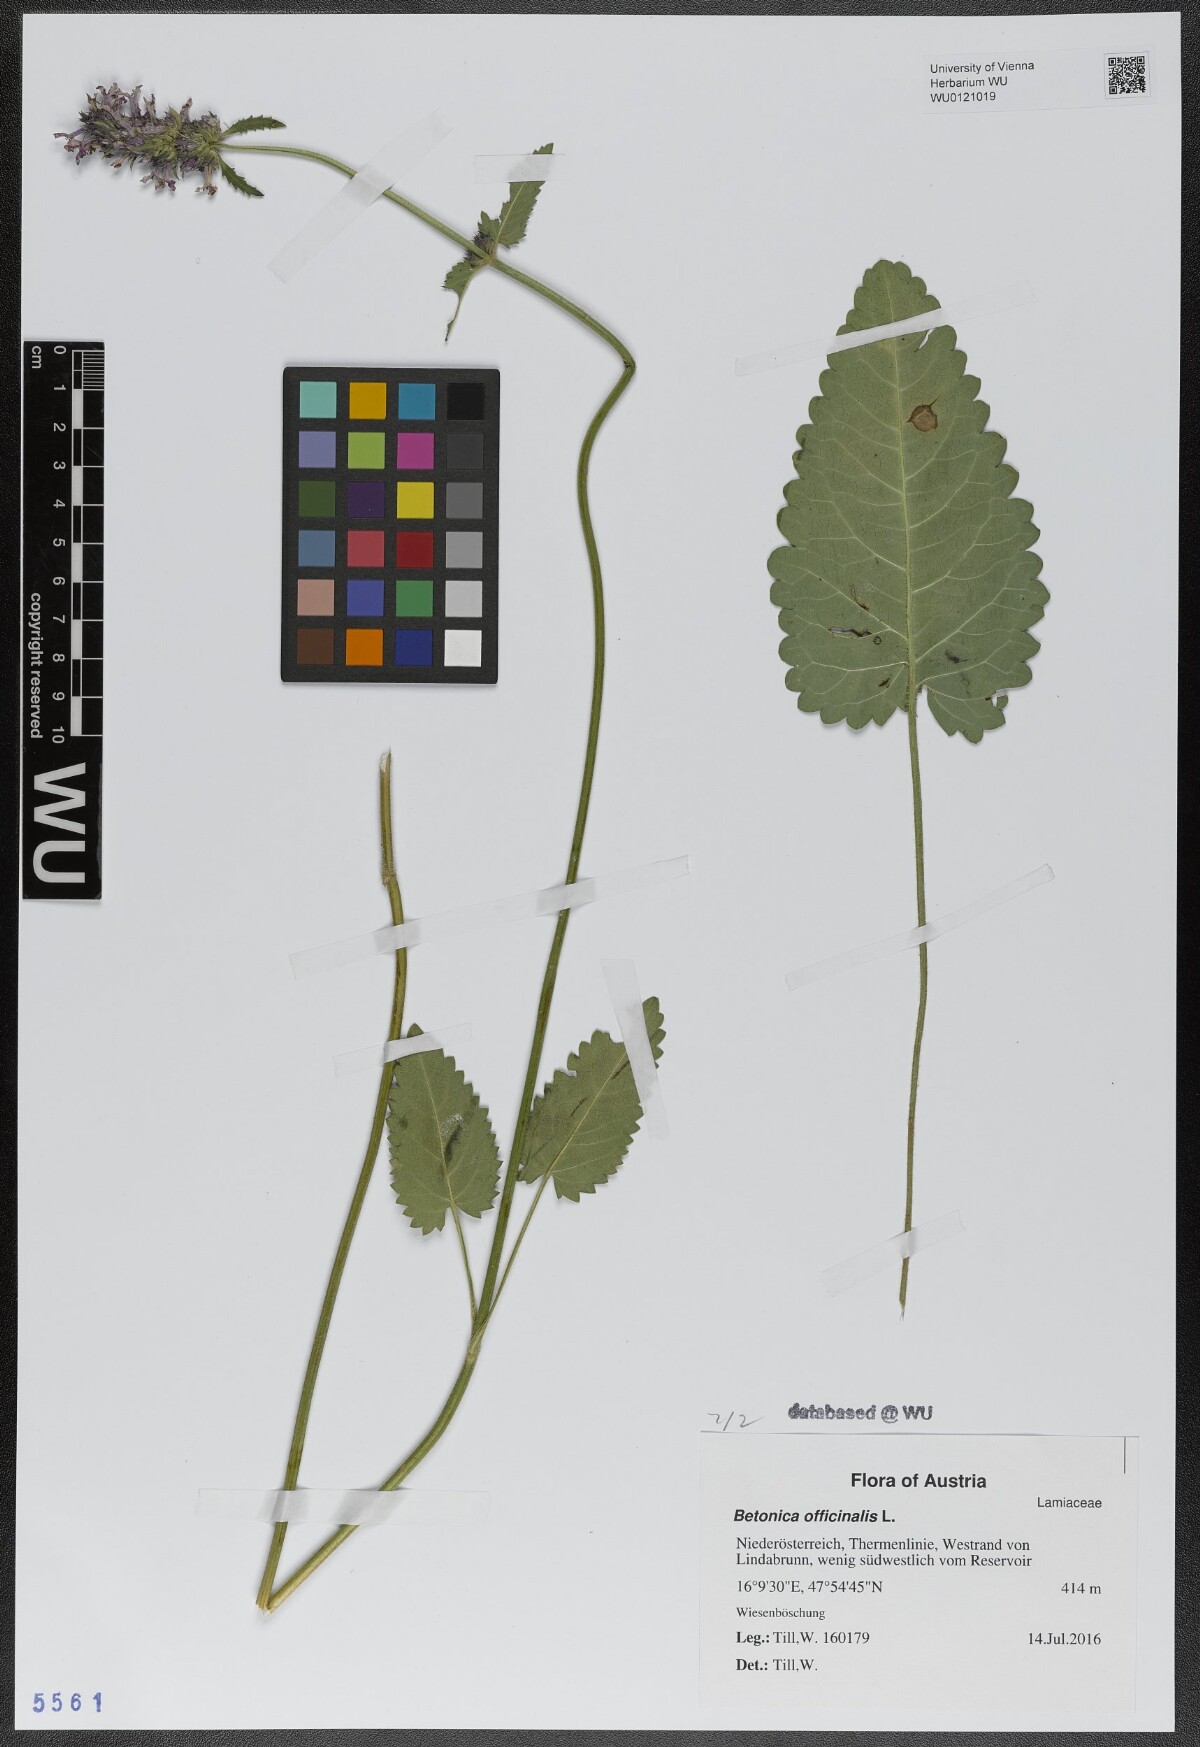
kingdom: Plantae
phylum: Tracheophyta
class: Magnoliopsida
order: Lamiales
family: Lamiaceae
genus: Betonica
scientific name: Betonica officinalis
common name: Bishop's-wort
